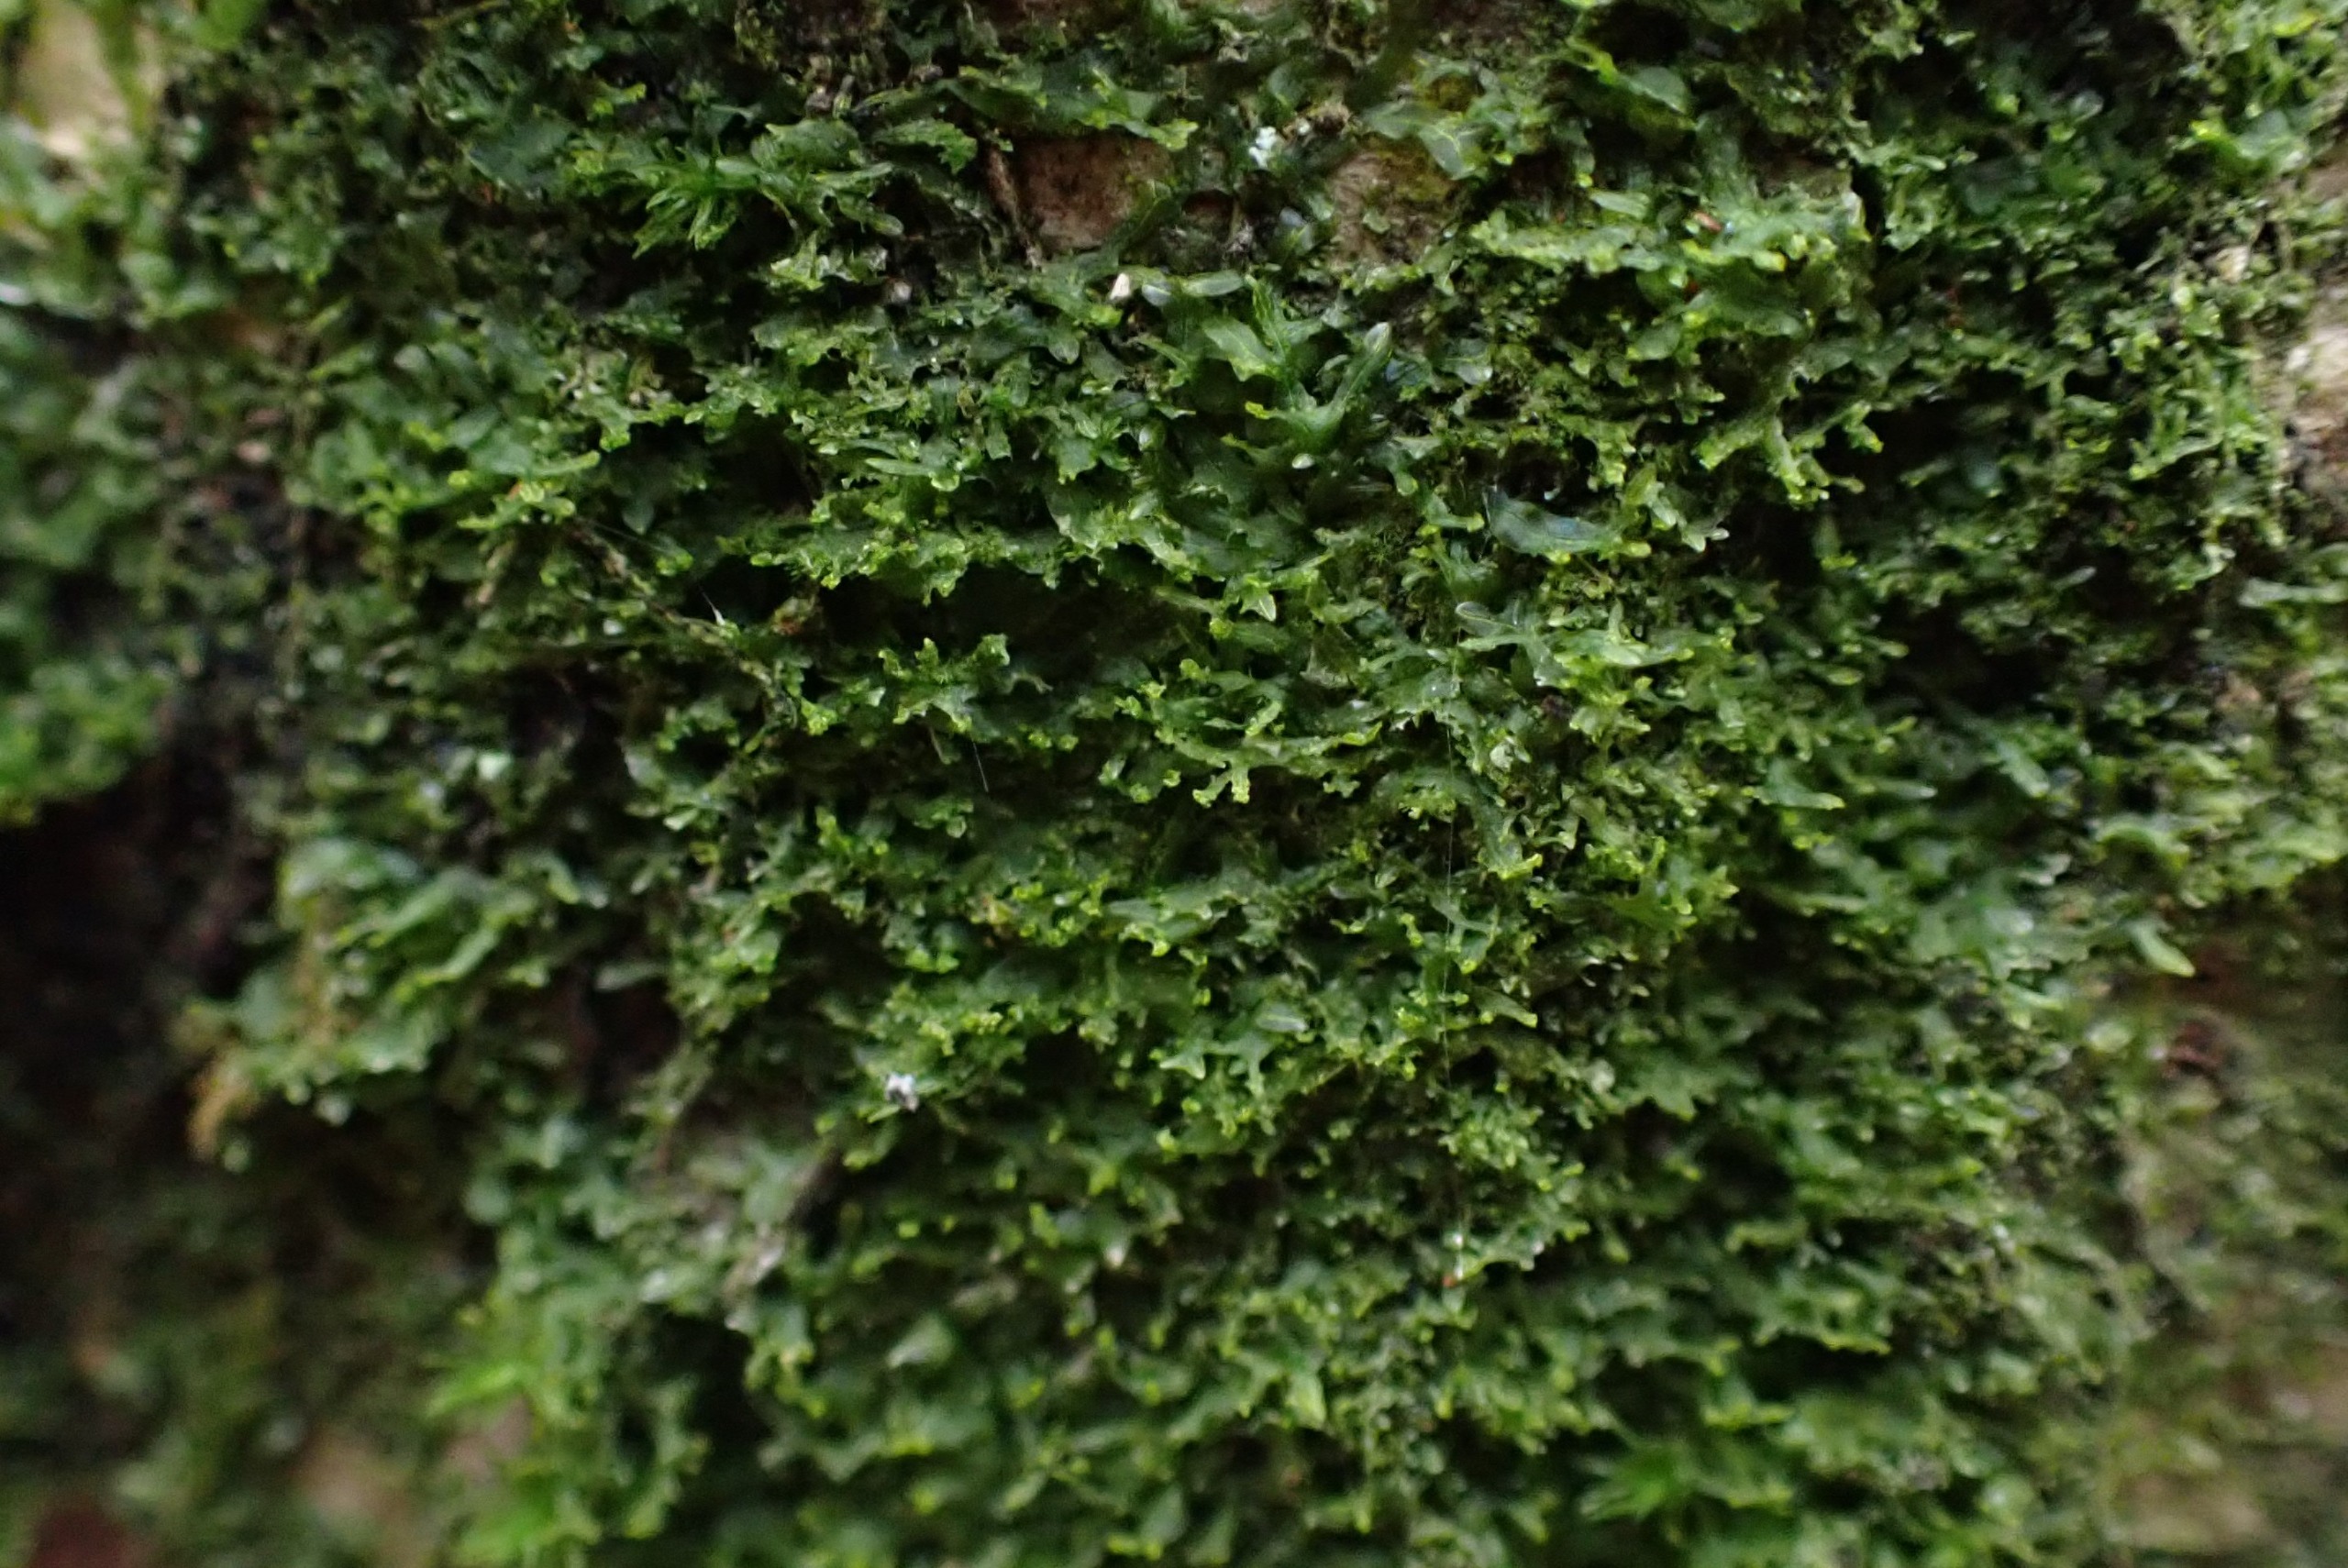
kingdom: Plantae
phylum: Marchantiophyta
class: Jungermanniopsida
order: Metzgeriales
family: Aneuraceae
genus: Riccardia
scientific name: Riccardia palmata
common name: Blågrøn gaffelløv
